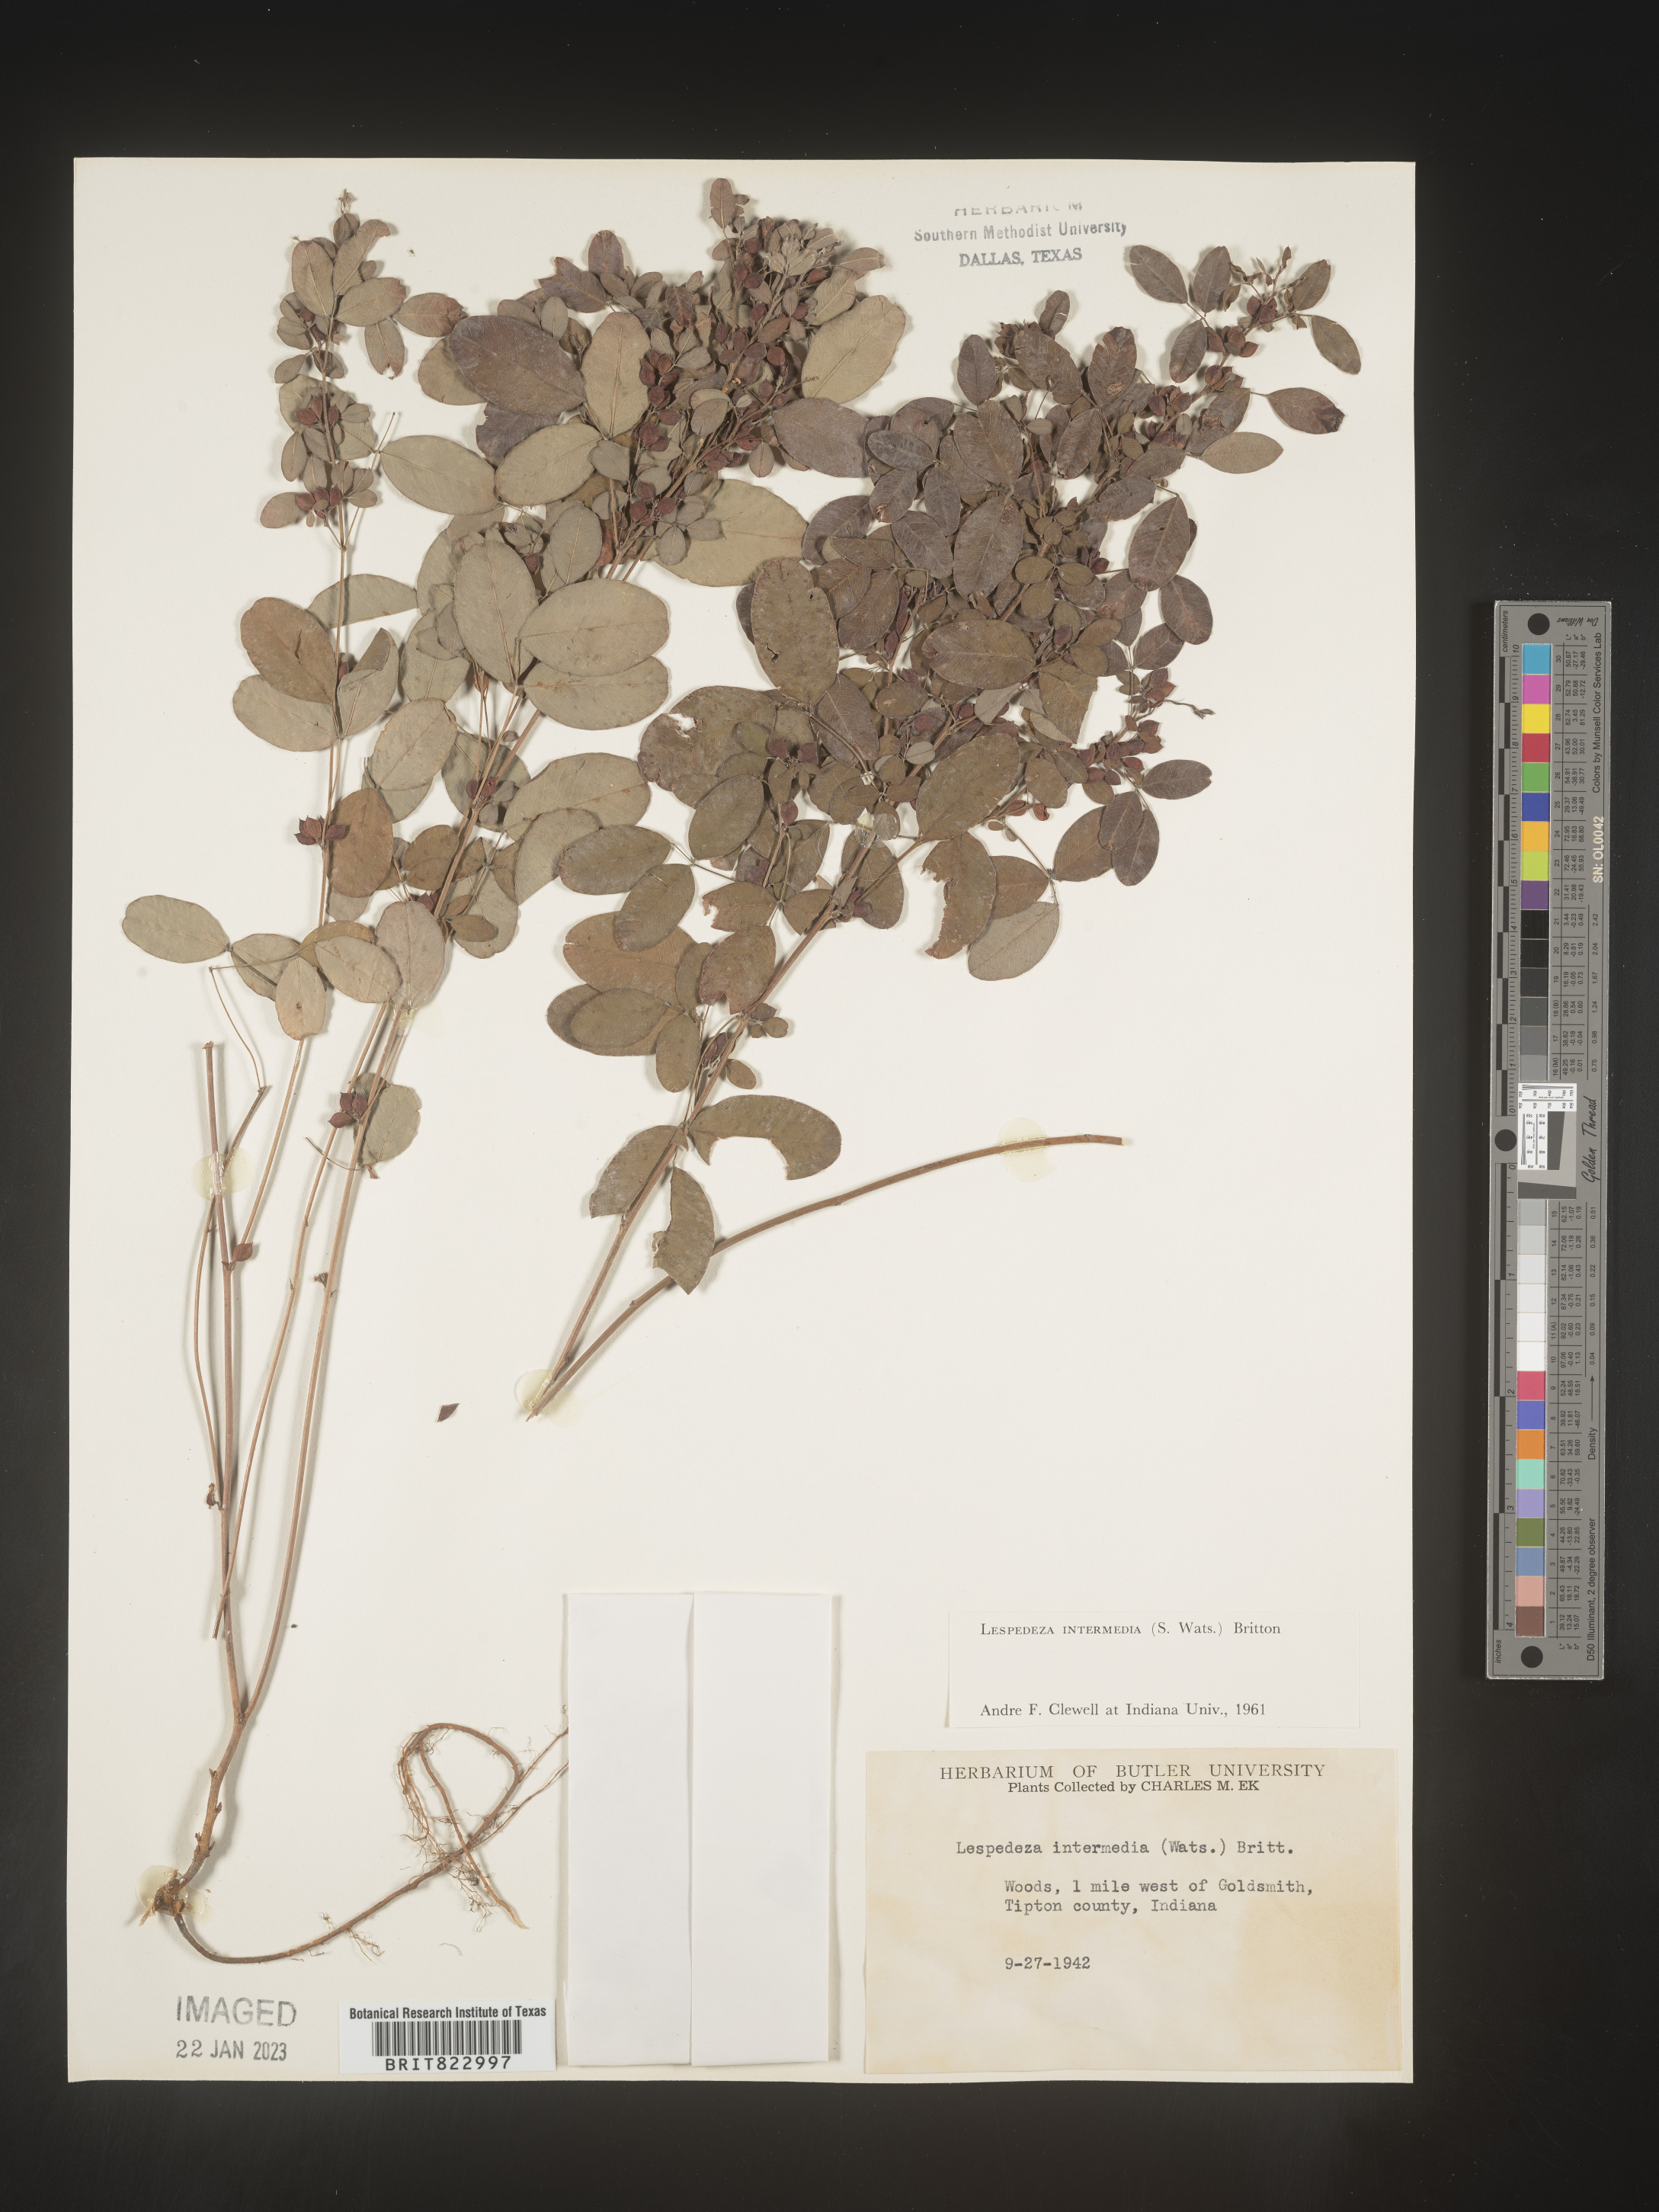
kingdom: Plantae
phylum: Tracheophyta
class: Magnoliopsida
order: Fabales
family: Fabaceae
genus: Lespedeza
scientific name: Lespedeza
